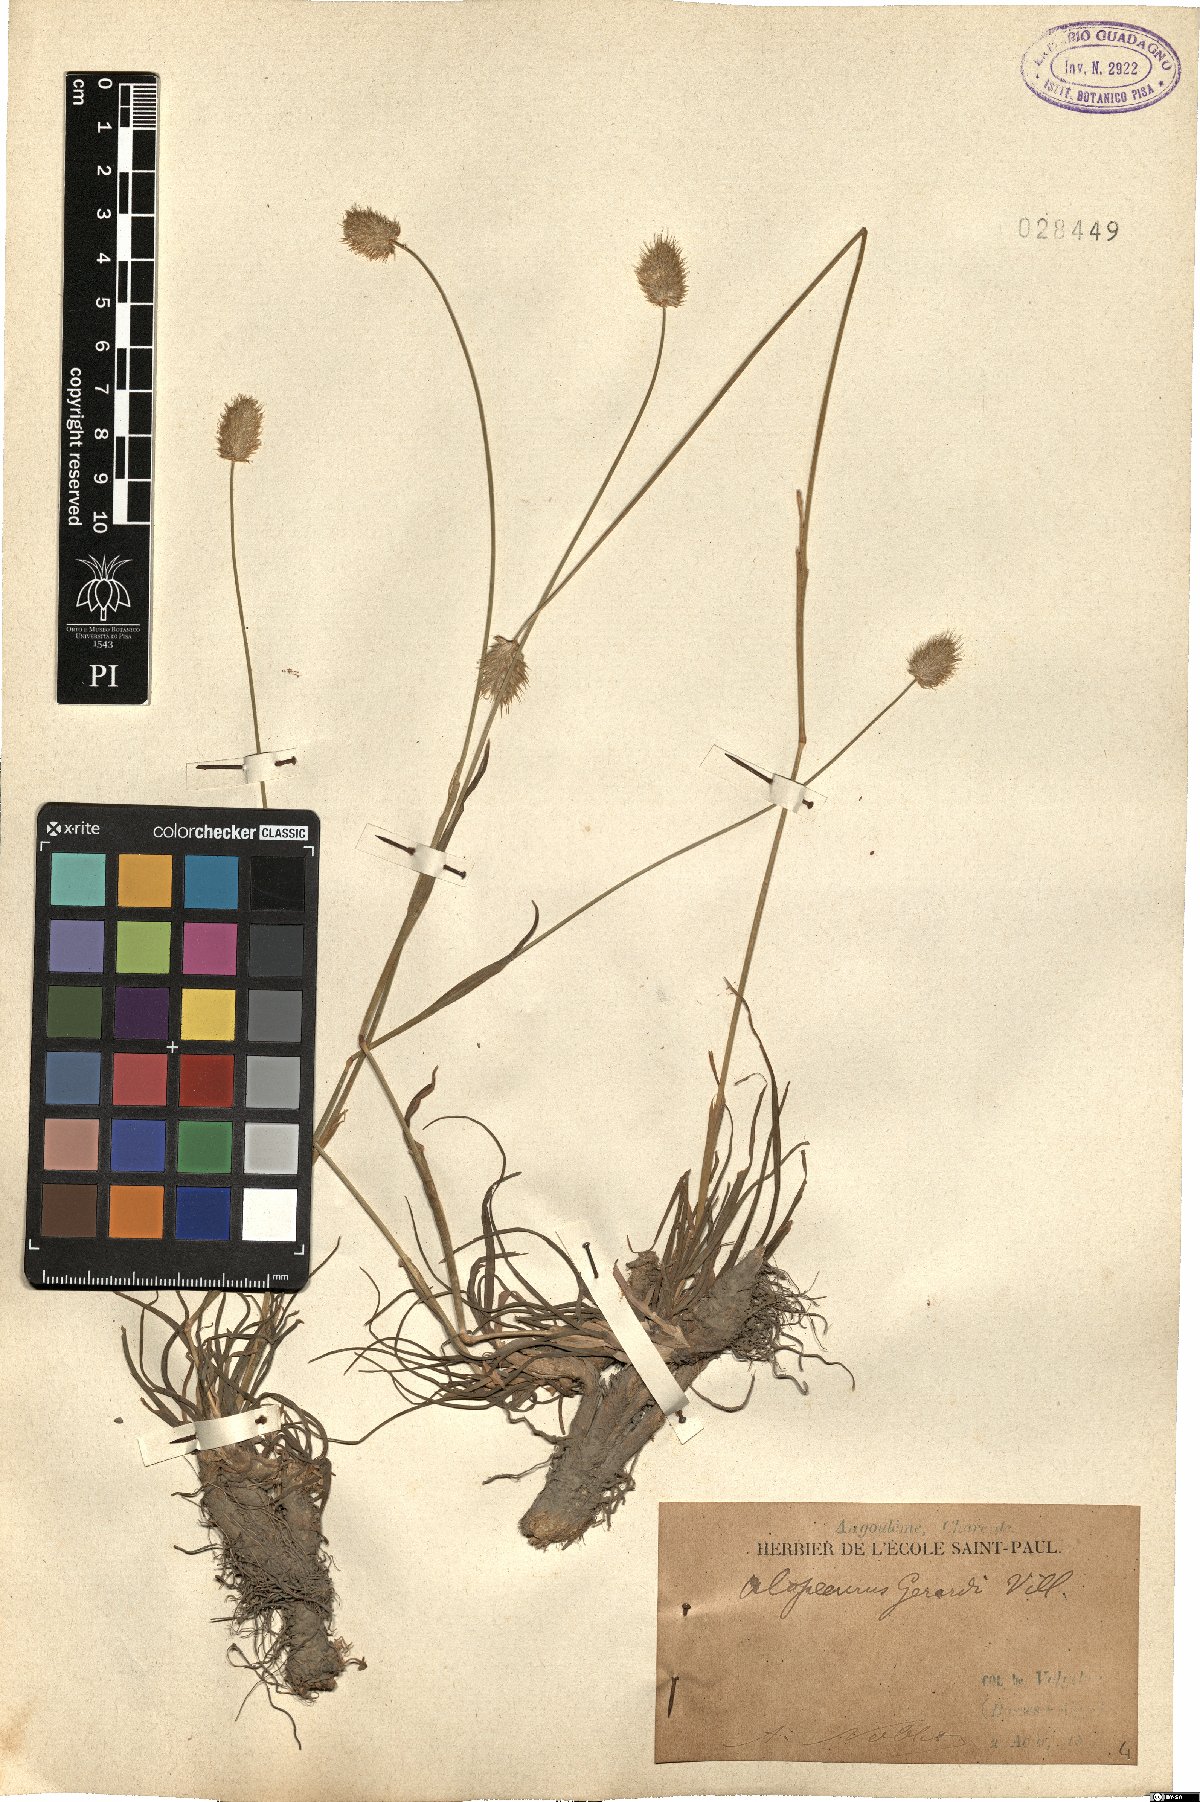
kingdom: Plantae
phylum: Tracheophyta
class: Liliopsida
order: Poales
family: Poaceae
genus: Alopecurus
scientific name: Alopecurus gerardii
